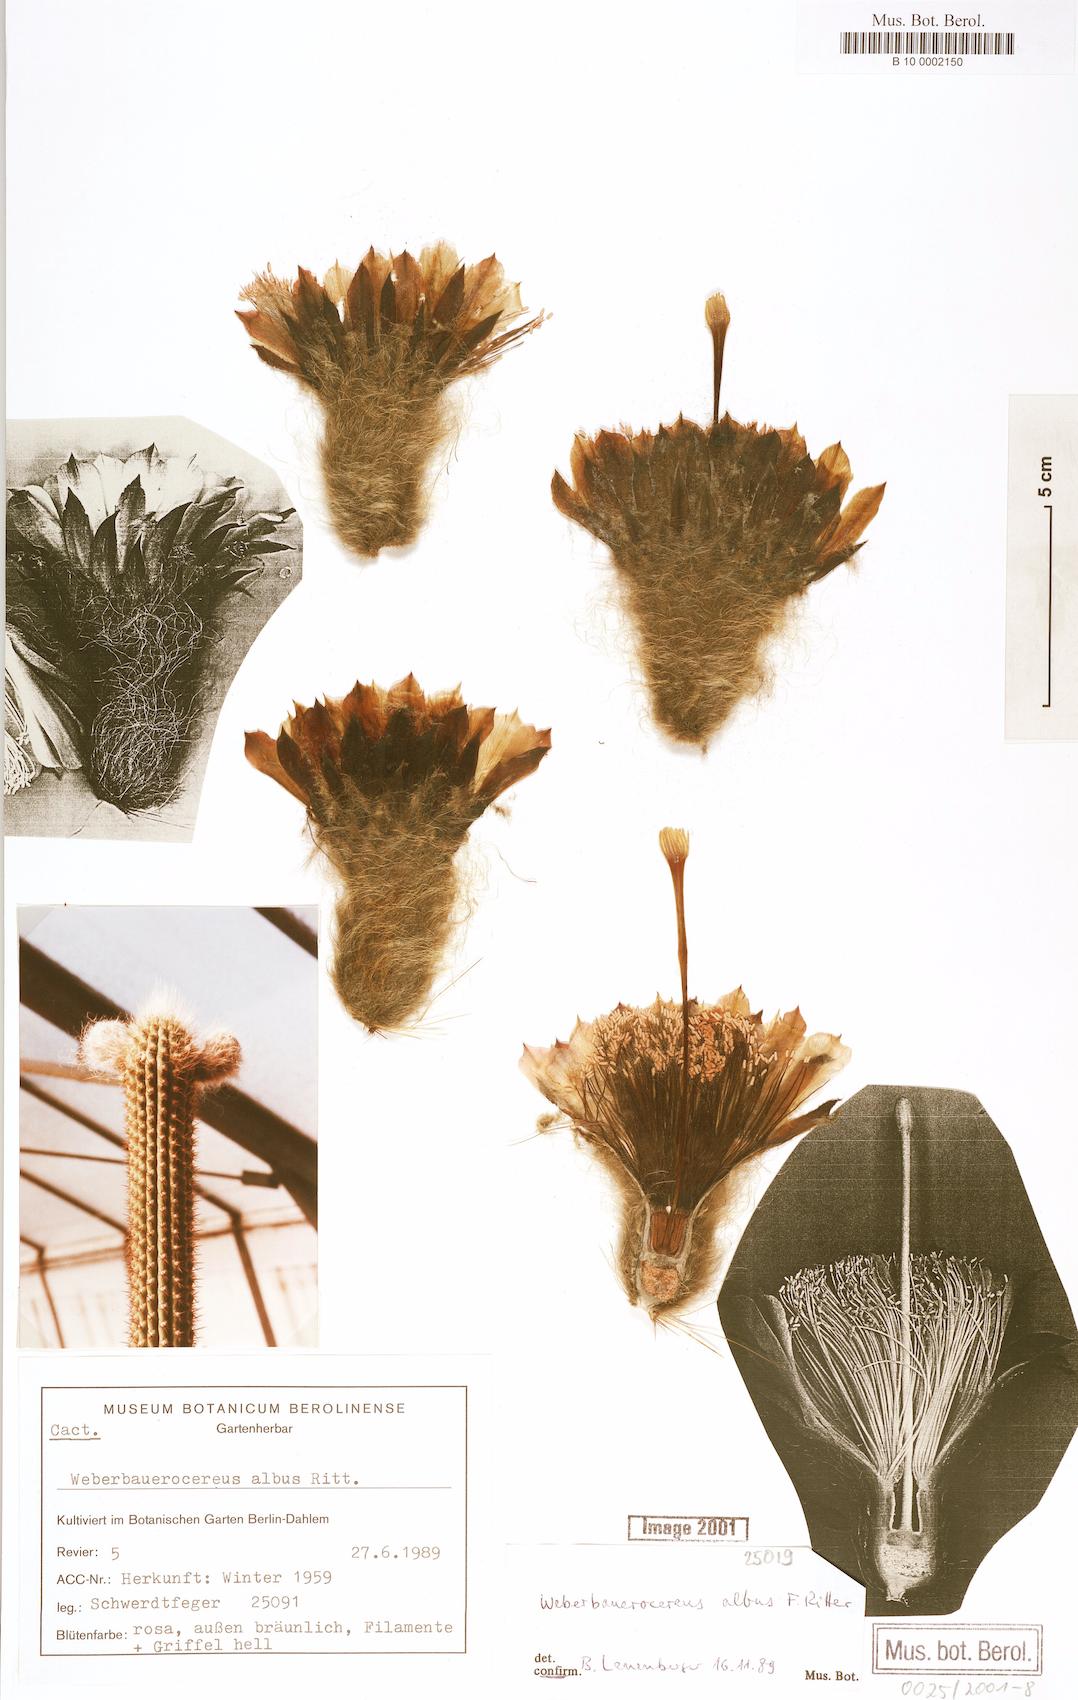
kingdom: Plantae
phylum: Tracheophyta
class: Magnoliopsida
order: Caryophyllales
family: Cactaceae
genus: Weberbauerocereus
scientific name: Weberbauerocereus albus
